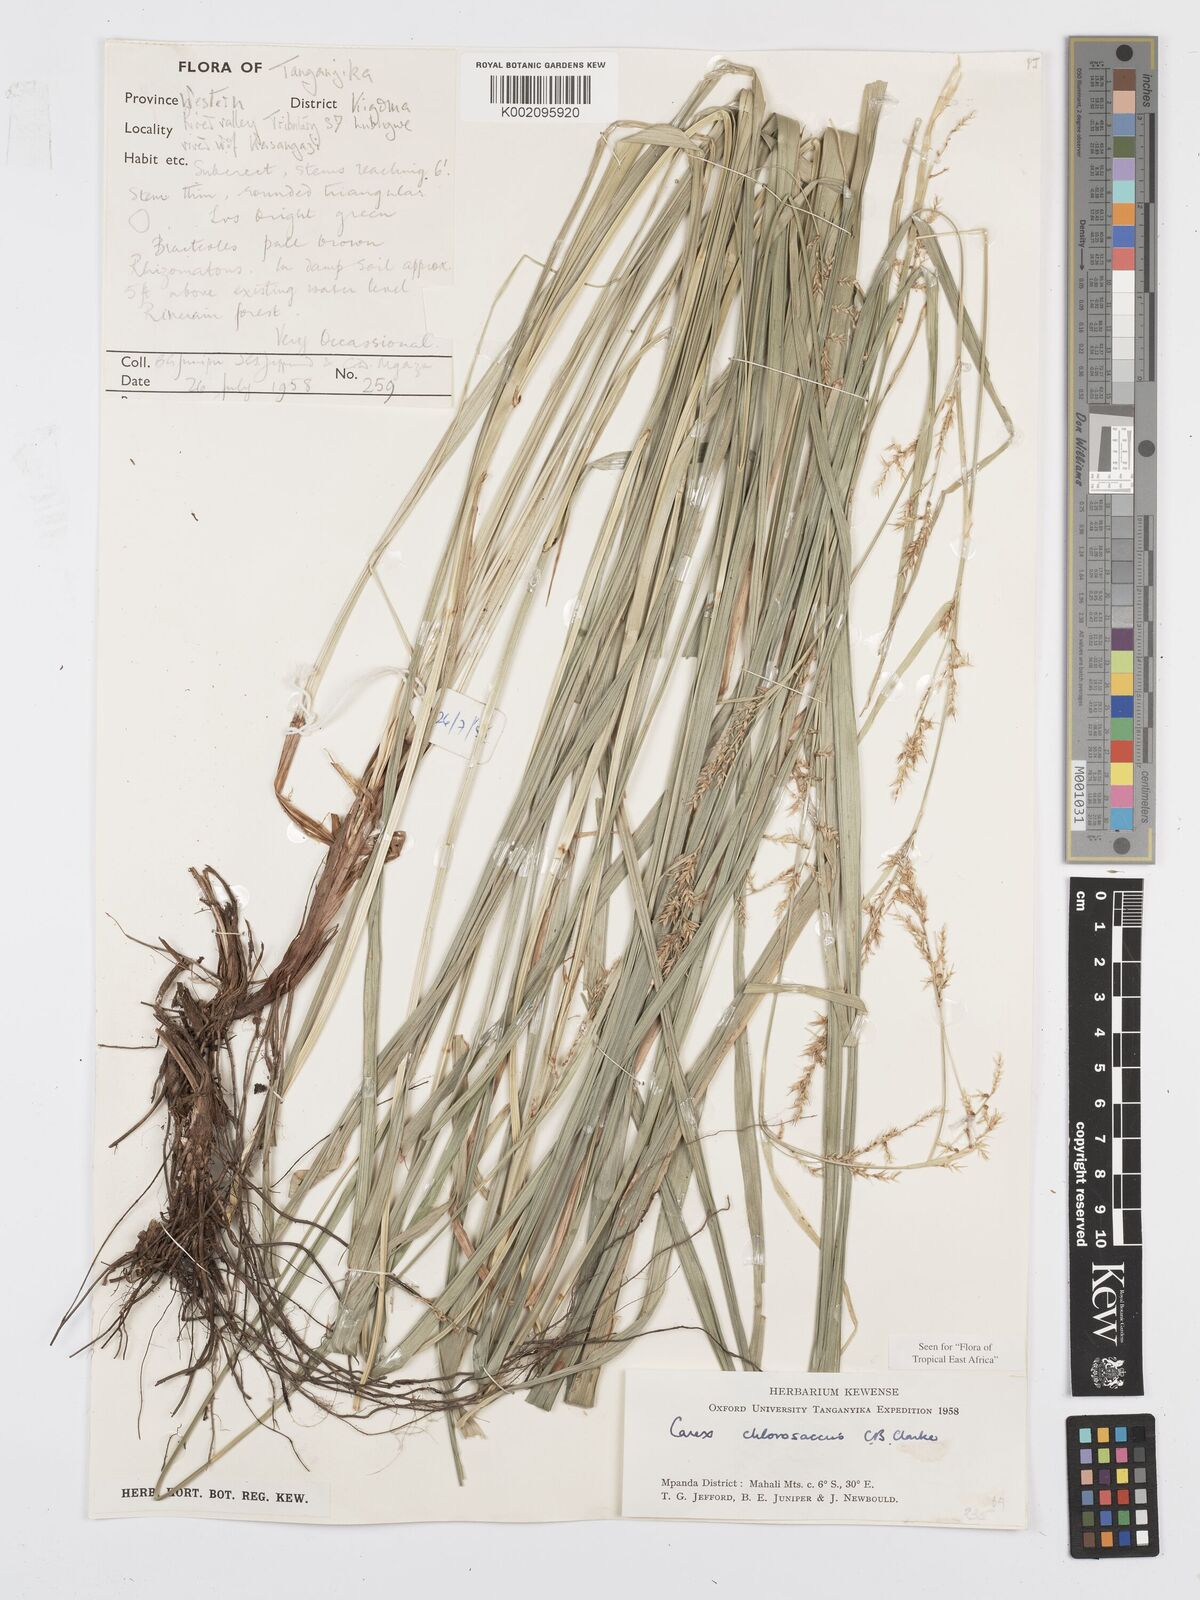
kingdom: Plantae
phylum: Tracheophyta
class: Liliopsida
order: Poales
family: Cyperaceae
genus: Carex
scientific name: Carex chlorosaccus
